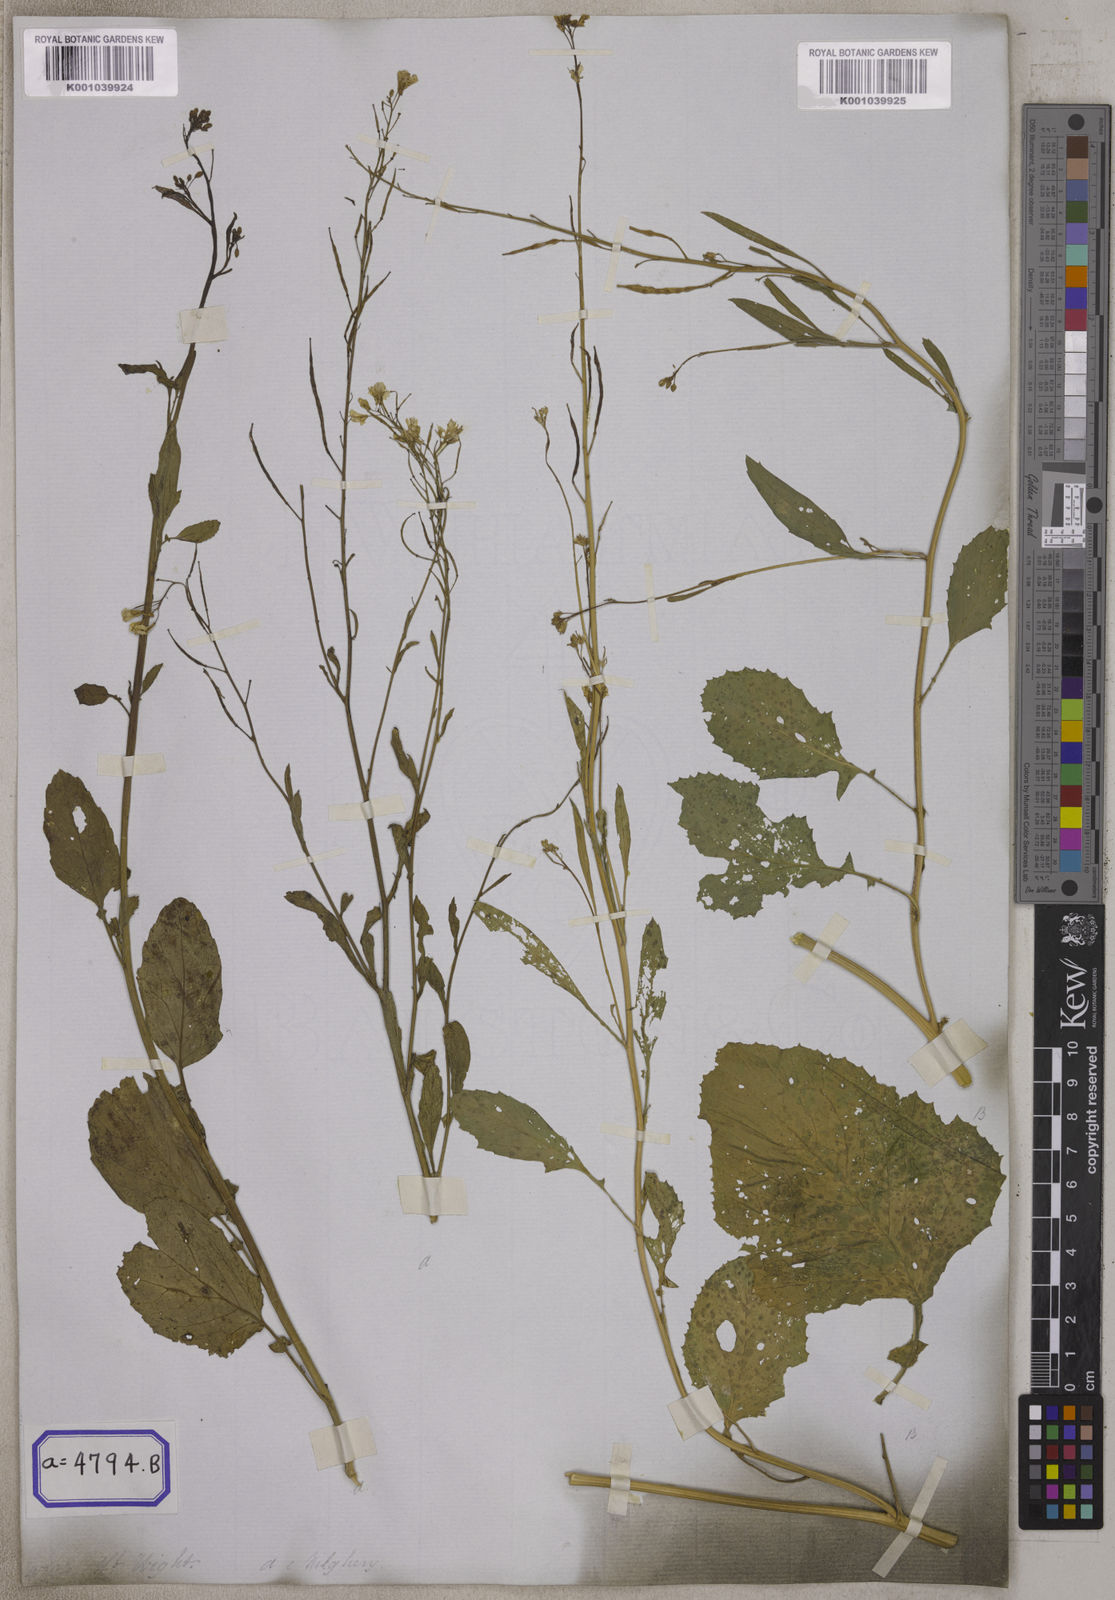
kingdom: Plantae
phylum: Tracheophyta
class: Magnoliopsida
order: Brassicales
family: Brassicaceae
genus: Brassica
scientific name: Brassica juncea
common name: Brown mustard
